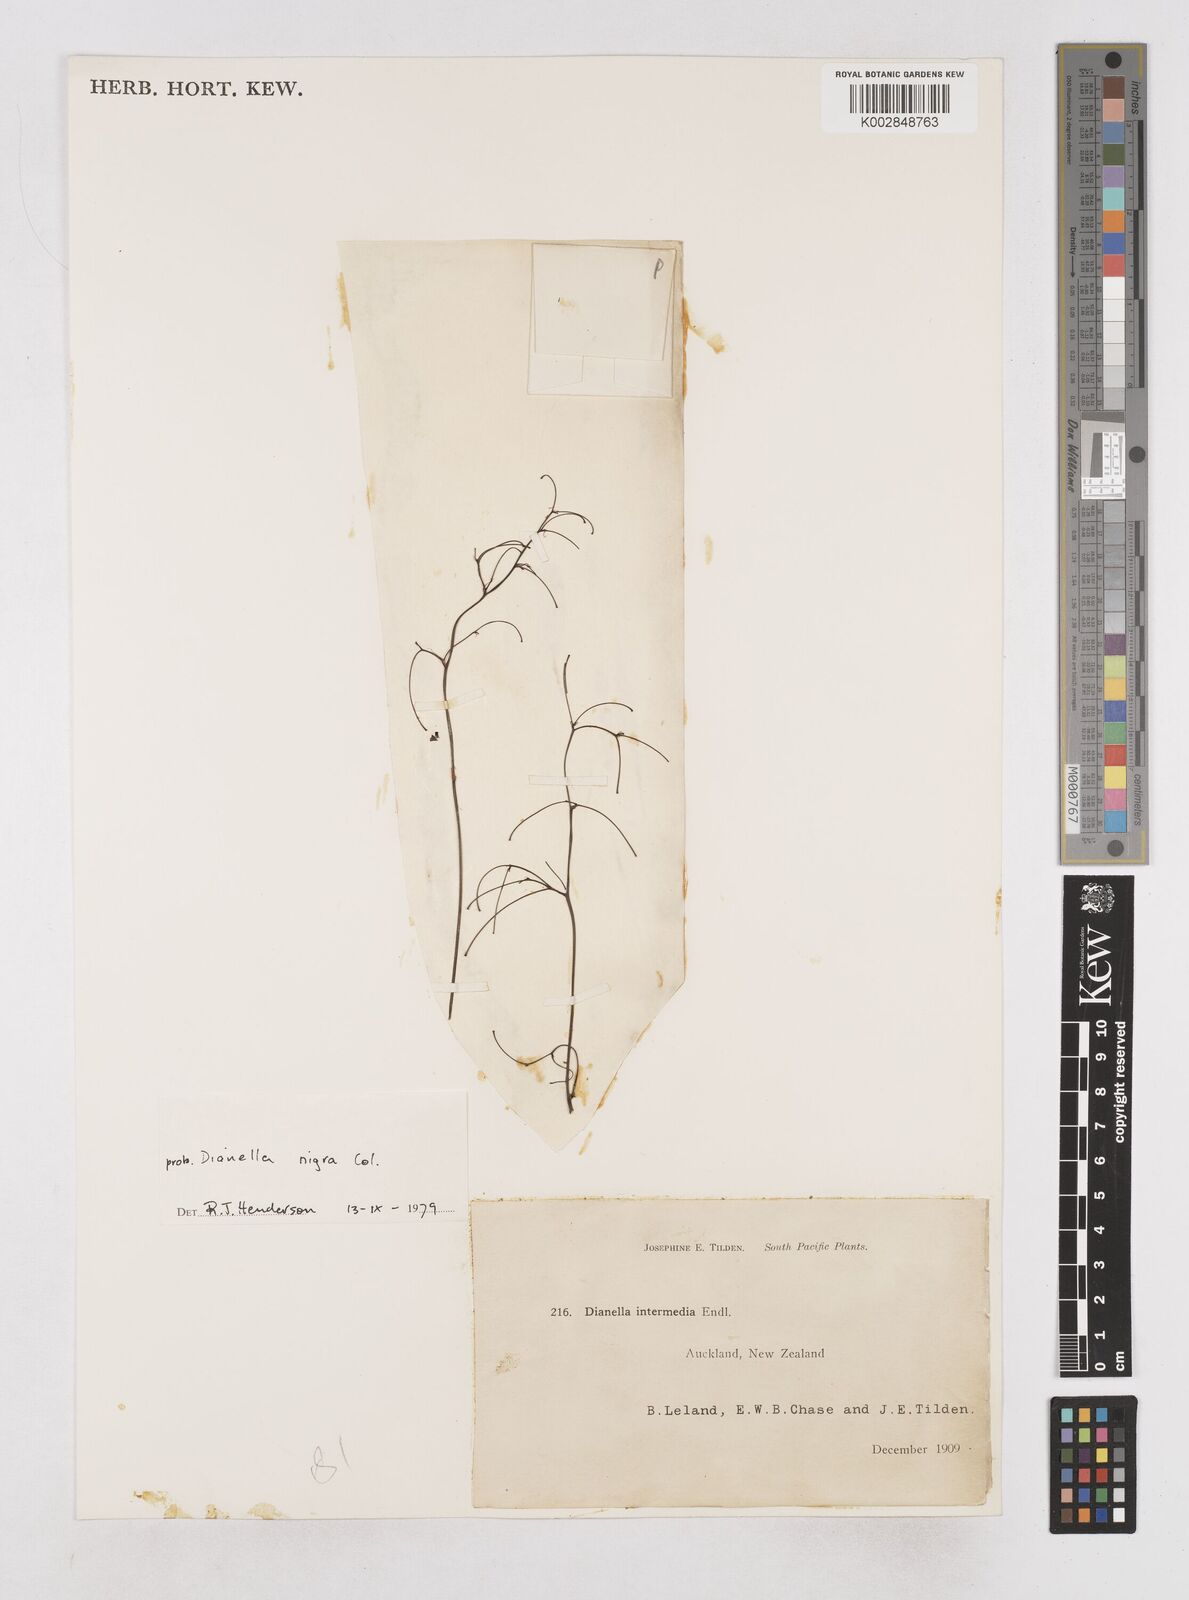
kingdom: Plantae
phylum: Tracheophyta
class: Liliopsida
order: Asparagales
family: Asphodelaceae
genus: Dianella
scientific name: Dianella nigra
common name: New zealand-blueberry
